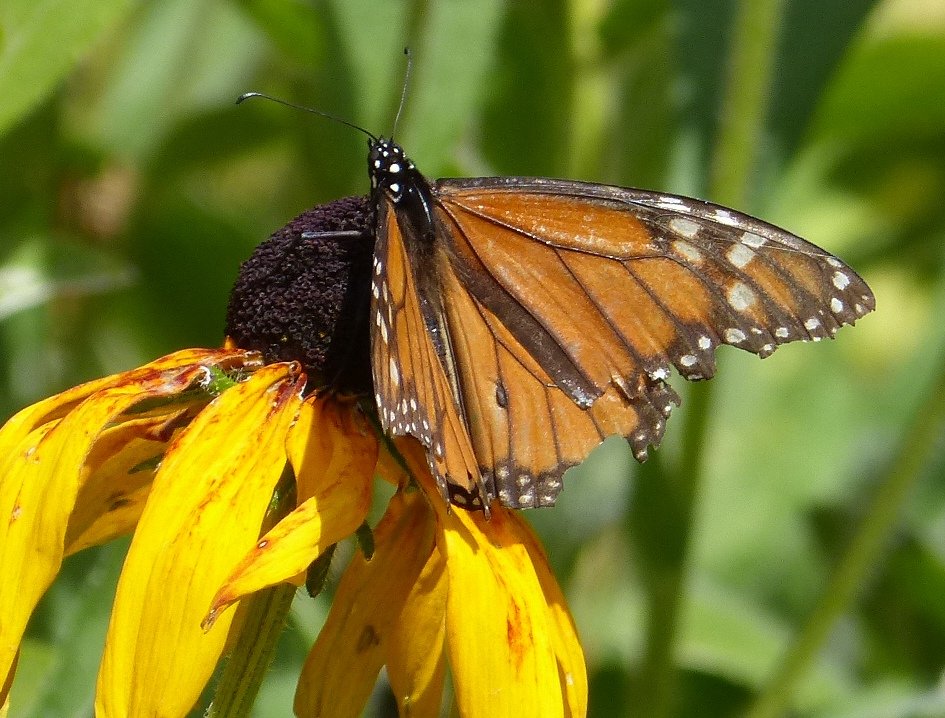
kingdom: Animalia
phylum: Arthropoda
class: Insecta
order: Lepidoptera
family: Nymphalidae
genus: Danaus
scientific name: Danaus plexippus
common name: Monarch
